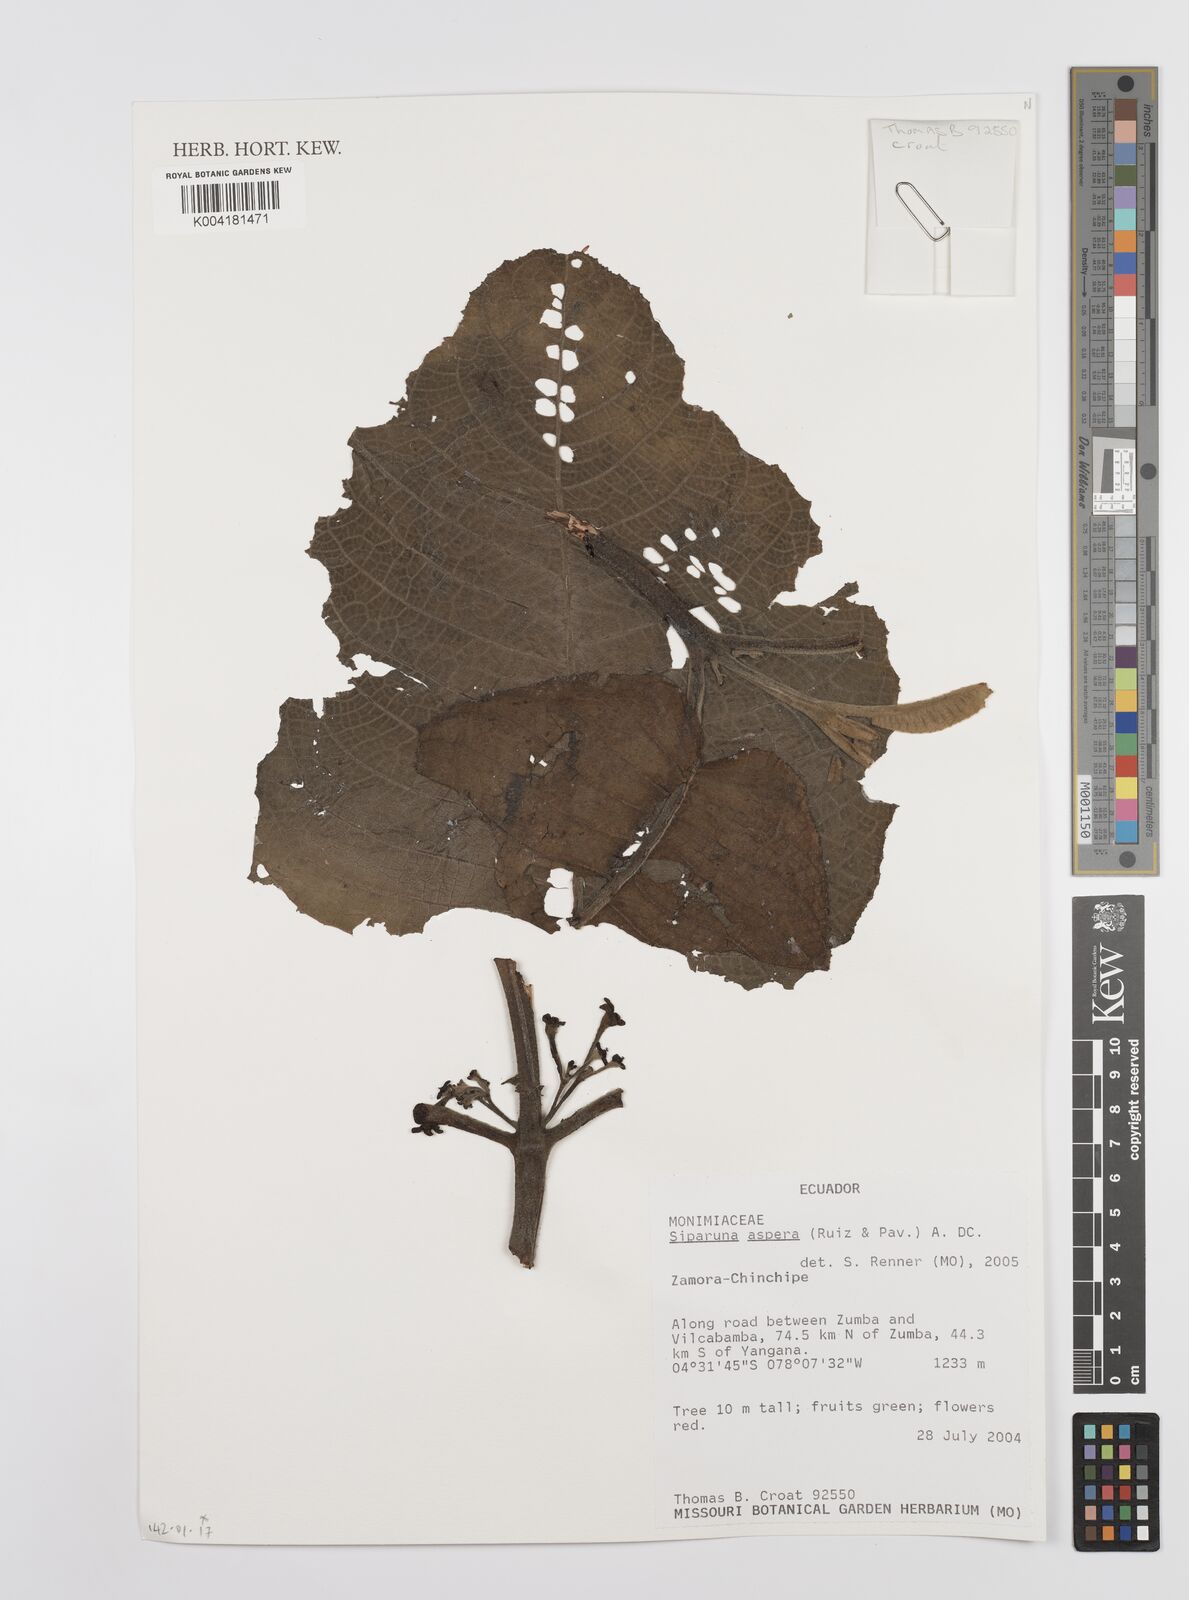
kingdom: Plantae
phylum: Tracheophyta
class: Magnoliopsida
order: Laurales
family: Siparunaceae
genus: Siparuna
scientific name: Siparuna aspera
